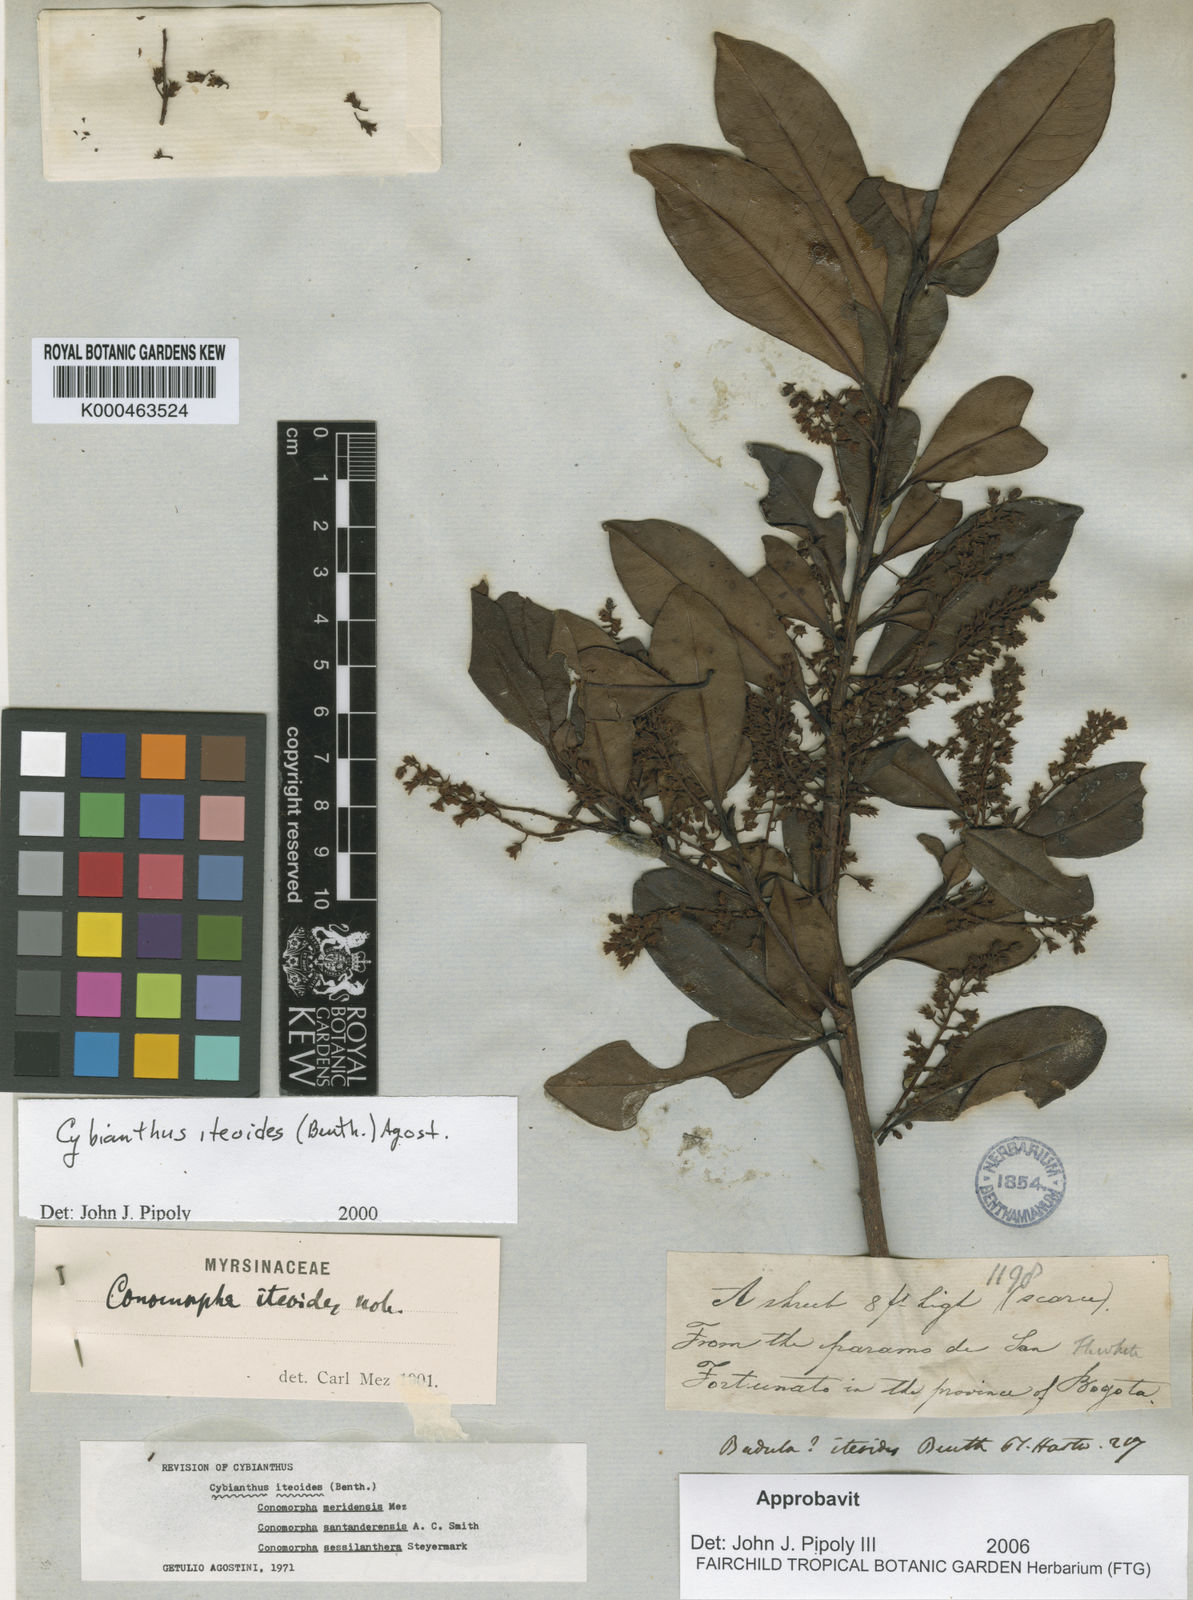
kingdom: Plantae
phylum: Tracheophyta
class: Magnoliopsida
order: Ericales
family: Primulaceae
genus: Cybianthus
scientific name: Cybianthus iteoides
